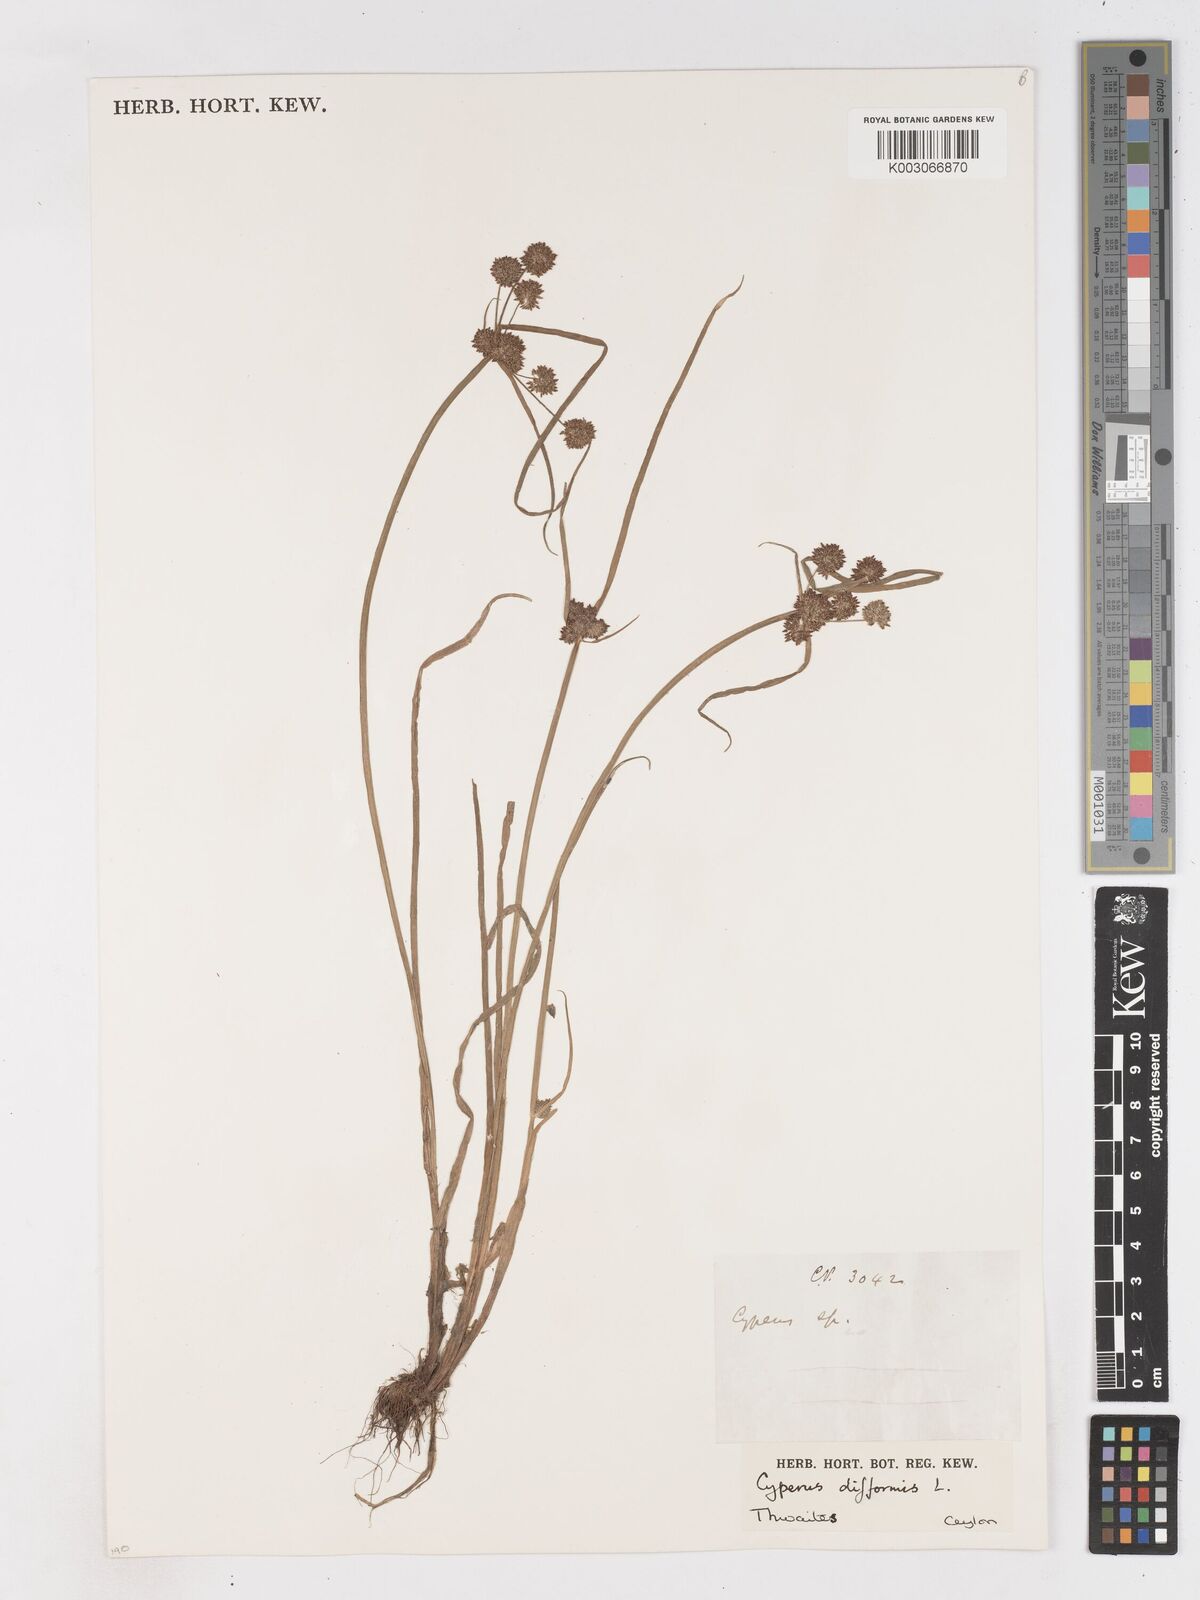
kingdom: Plantae
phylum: Tracheophyta
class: Liliopsida
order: Poales
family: Cyperaceae
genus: Cyperus
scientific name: Cyperus difformis
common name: Variable flatsedge
